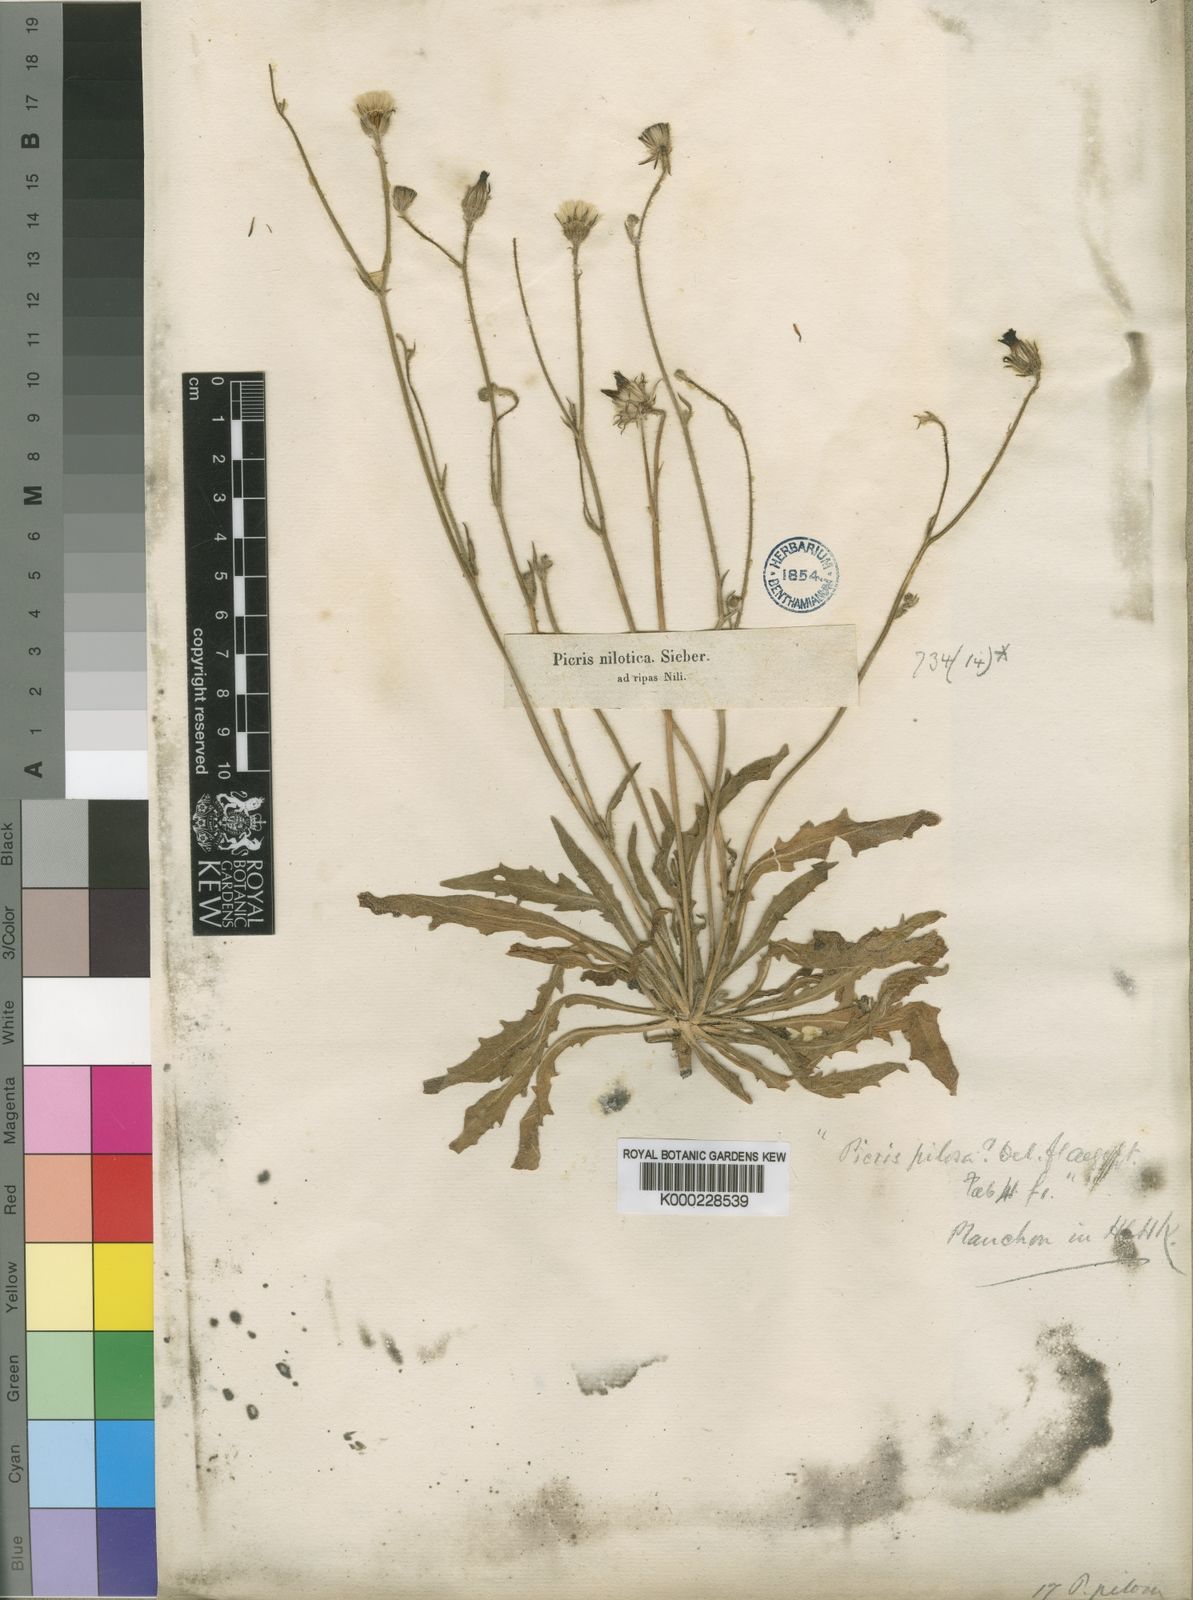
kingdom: Plantae
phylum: Tracheophyta
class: Magnoliopsida
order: Asterales
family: Asteraceae
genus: Picris
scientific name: Picris sulphurea
